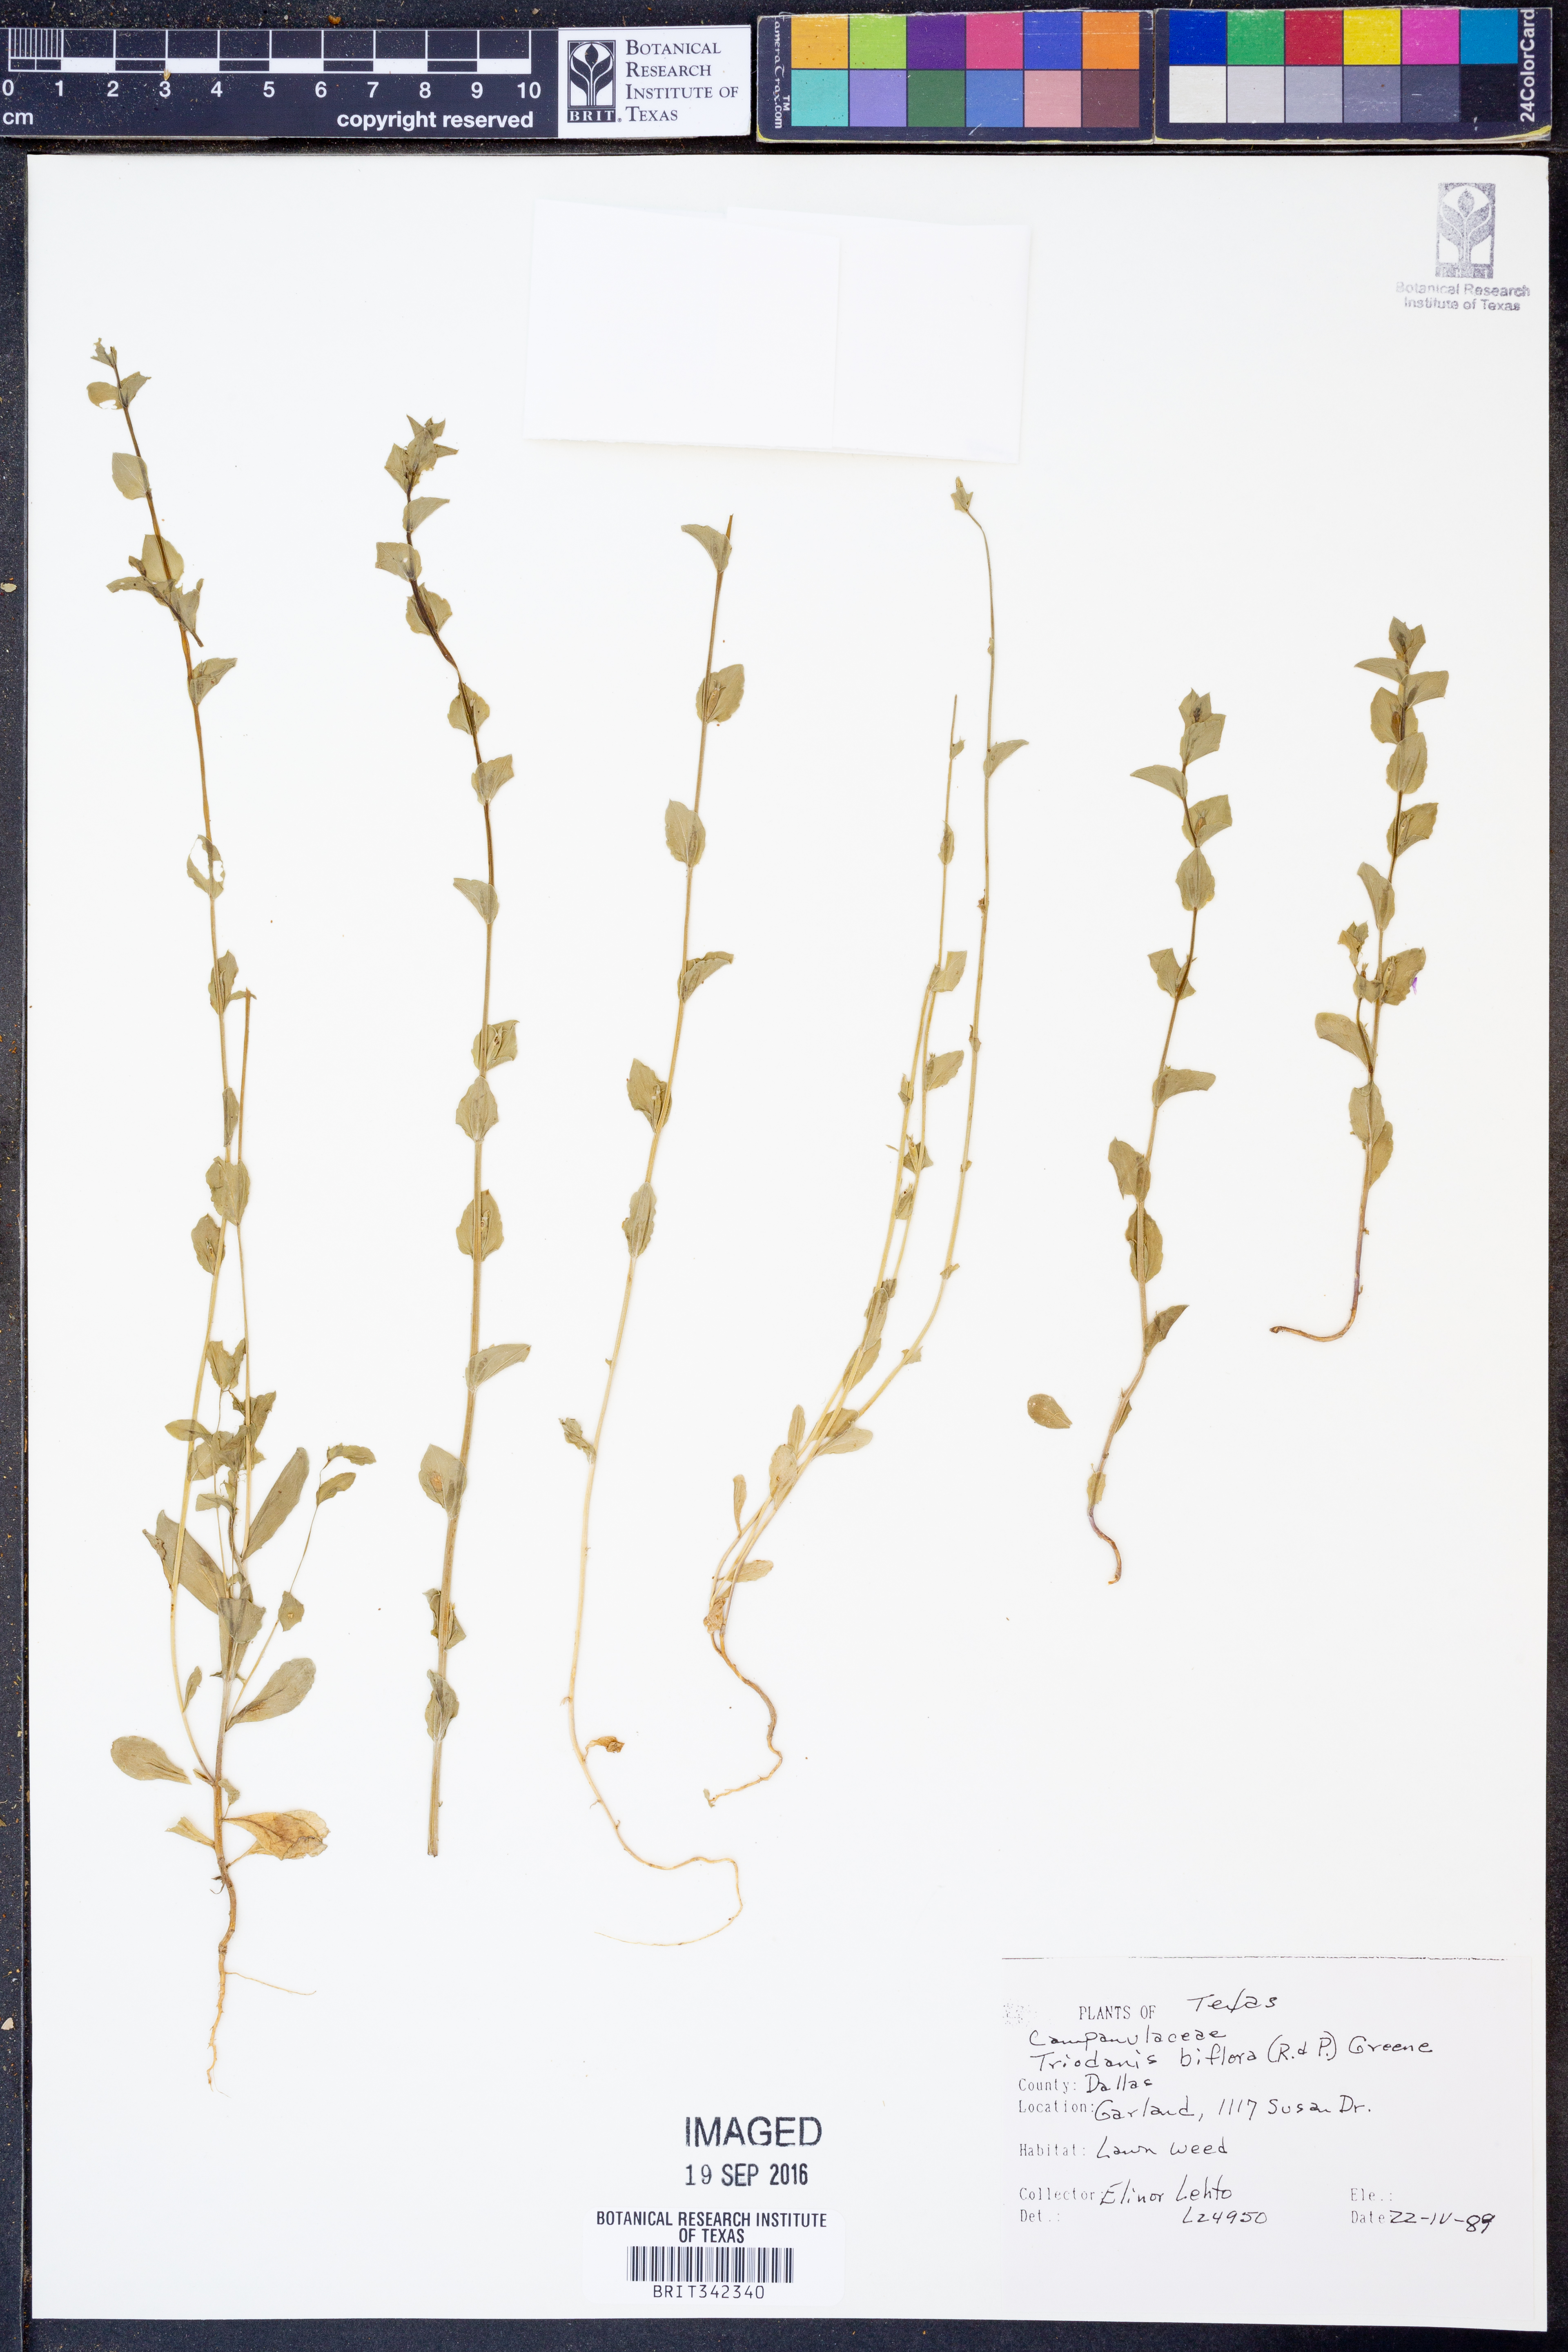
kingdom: Plantae
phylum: Tracheophyta
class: Magnoliopsida
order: Asterales
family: Campanulaceae
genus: Triodanis
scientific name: Triodanis perfoliata
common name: Clasping venus' looking-glass
